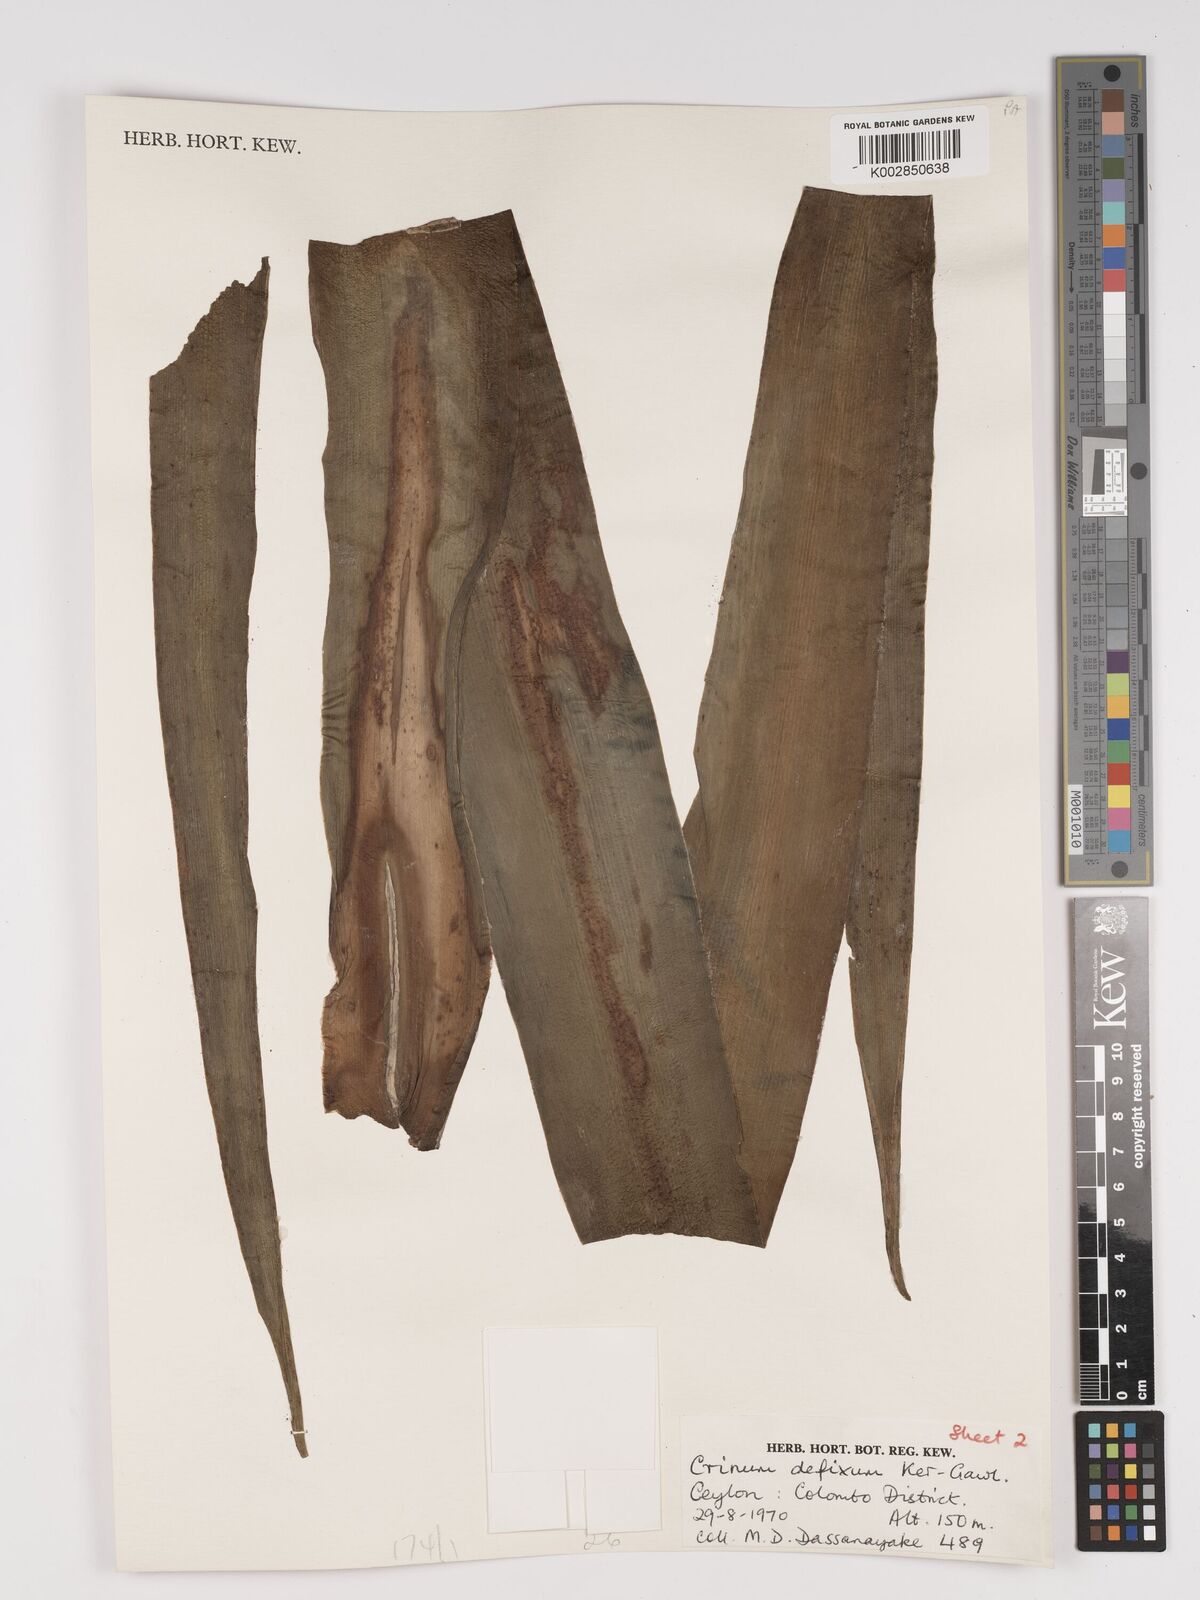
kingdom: Plantae
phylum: Tracheophyta
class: Liliopsida
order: Asparagales
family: Amaryllidaceae
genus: Crinum
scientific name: Crinum defixum
